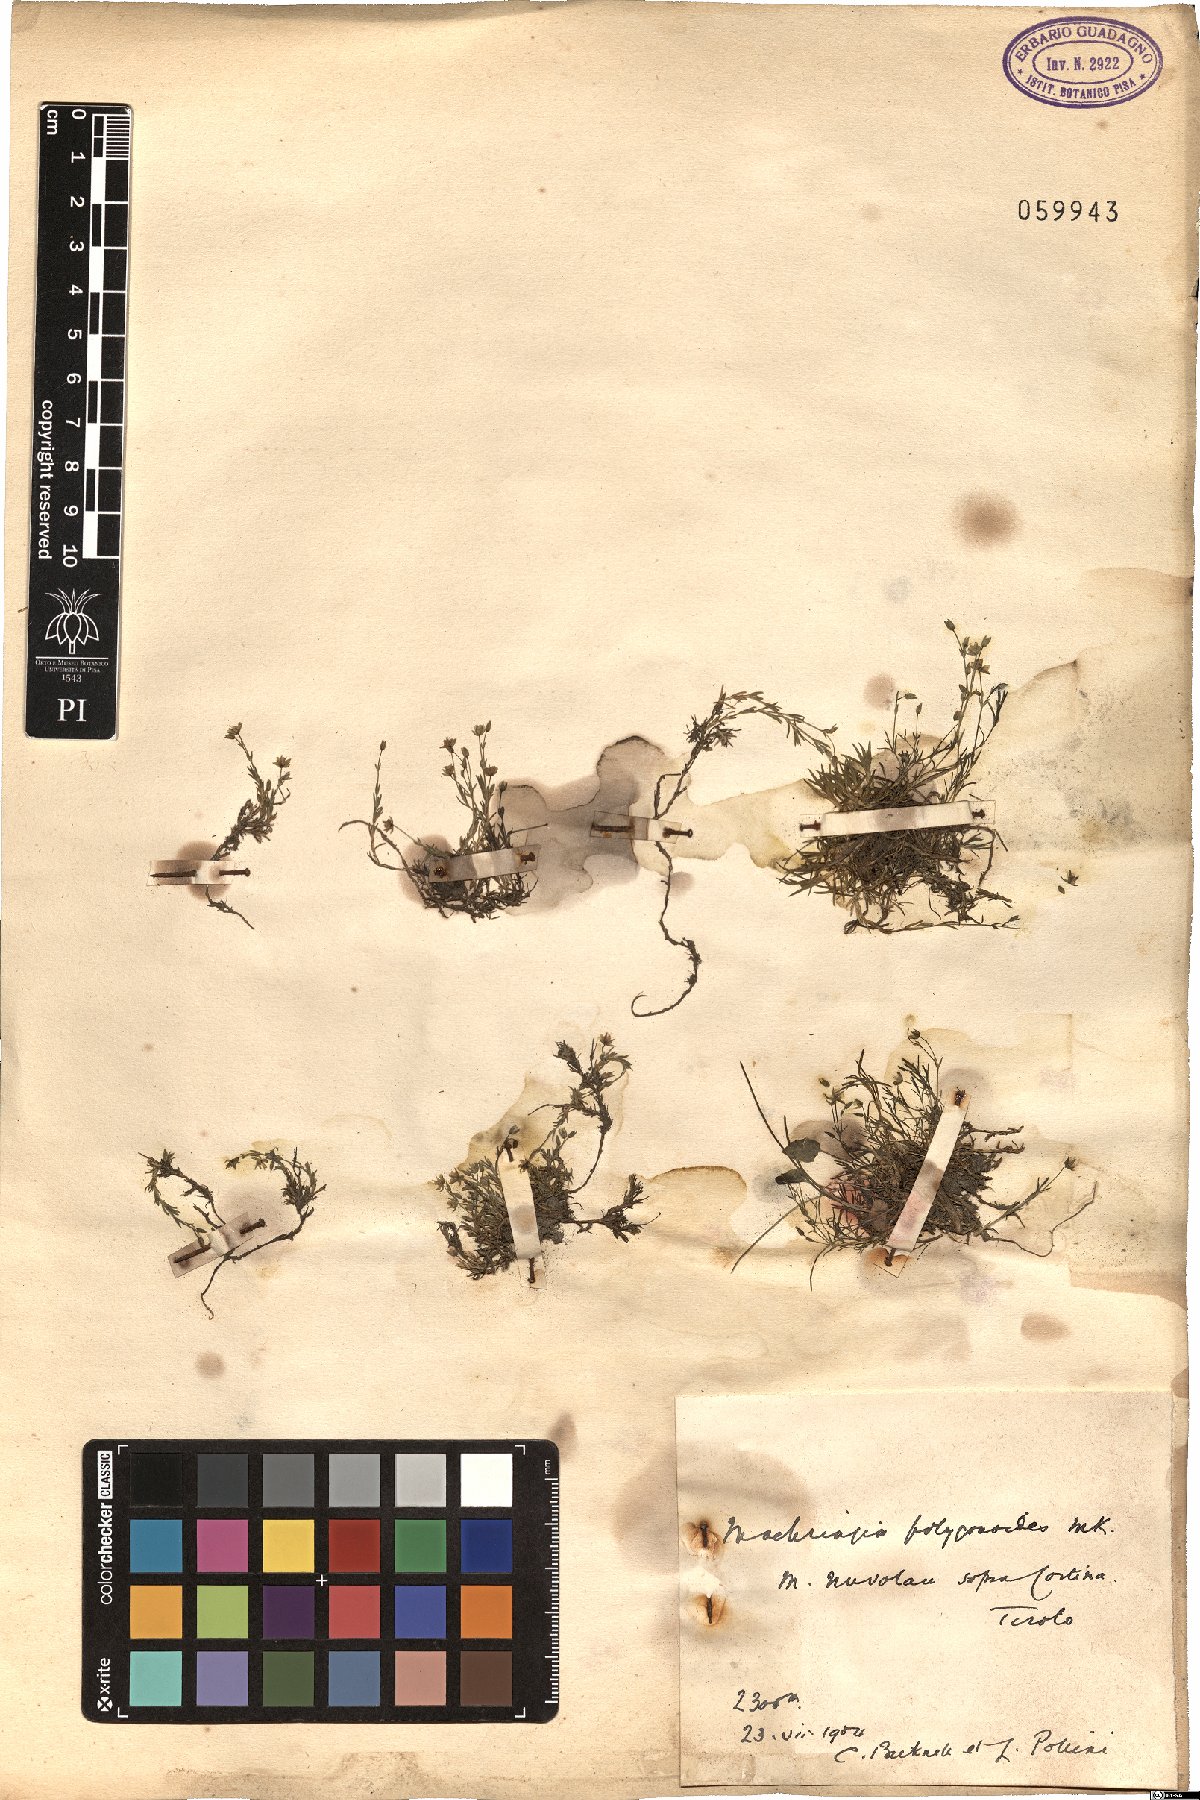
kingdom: Plantae
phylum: Tracheophyta
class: Magnoliopsida
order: Caryophyllales
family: Caryophyllaceae
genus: Moehringia
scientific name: Moehringia ciliata
